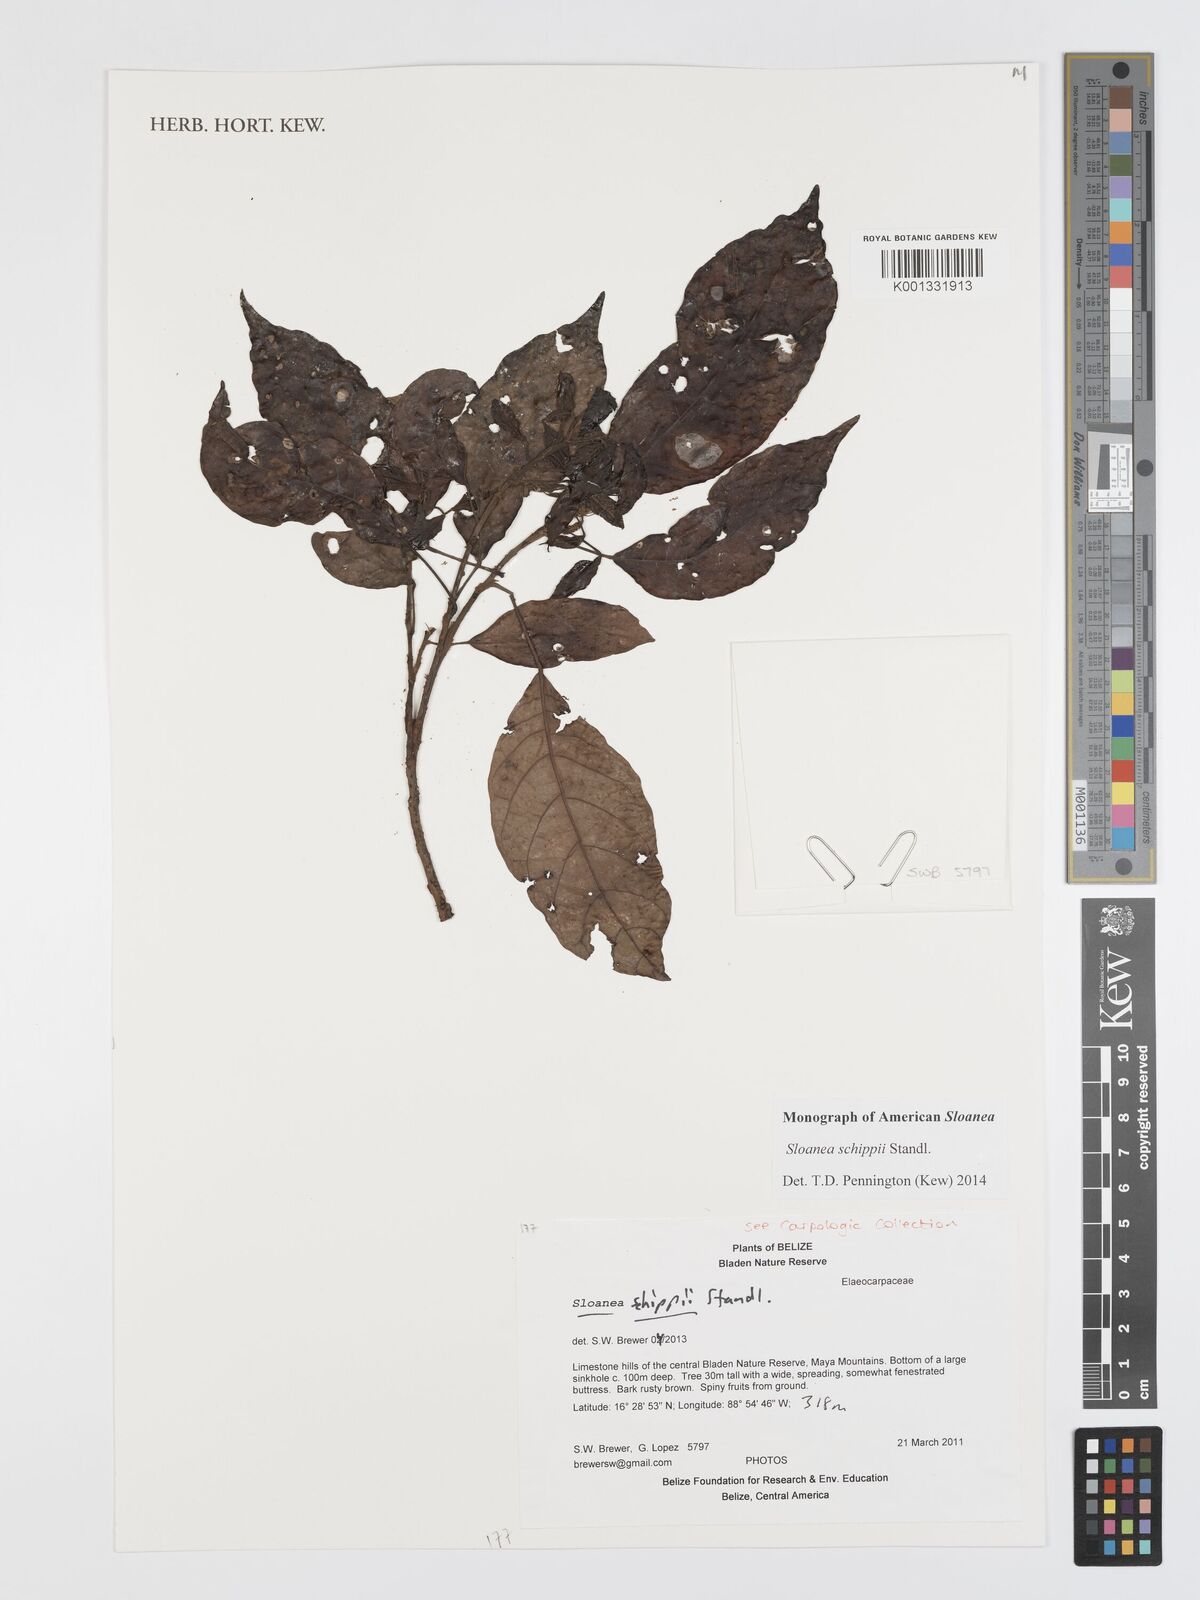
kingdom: Plantae
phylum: Tracheophyta
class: Magnoliopsida
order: Oxalidales
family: Elaeocarpaceae
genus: Sloanea
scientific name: Sloanea schippii
